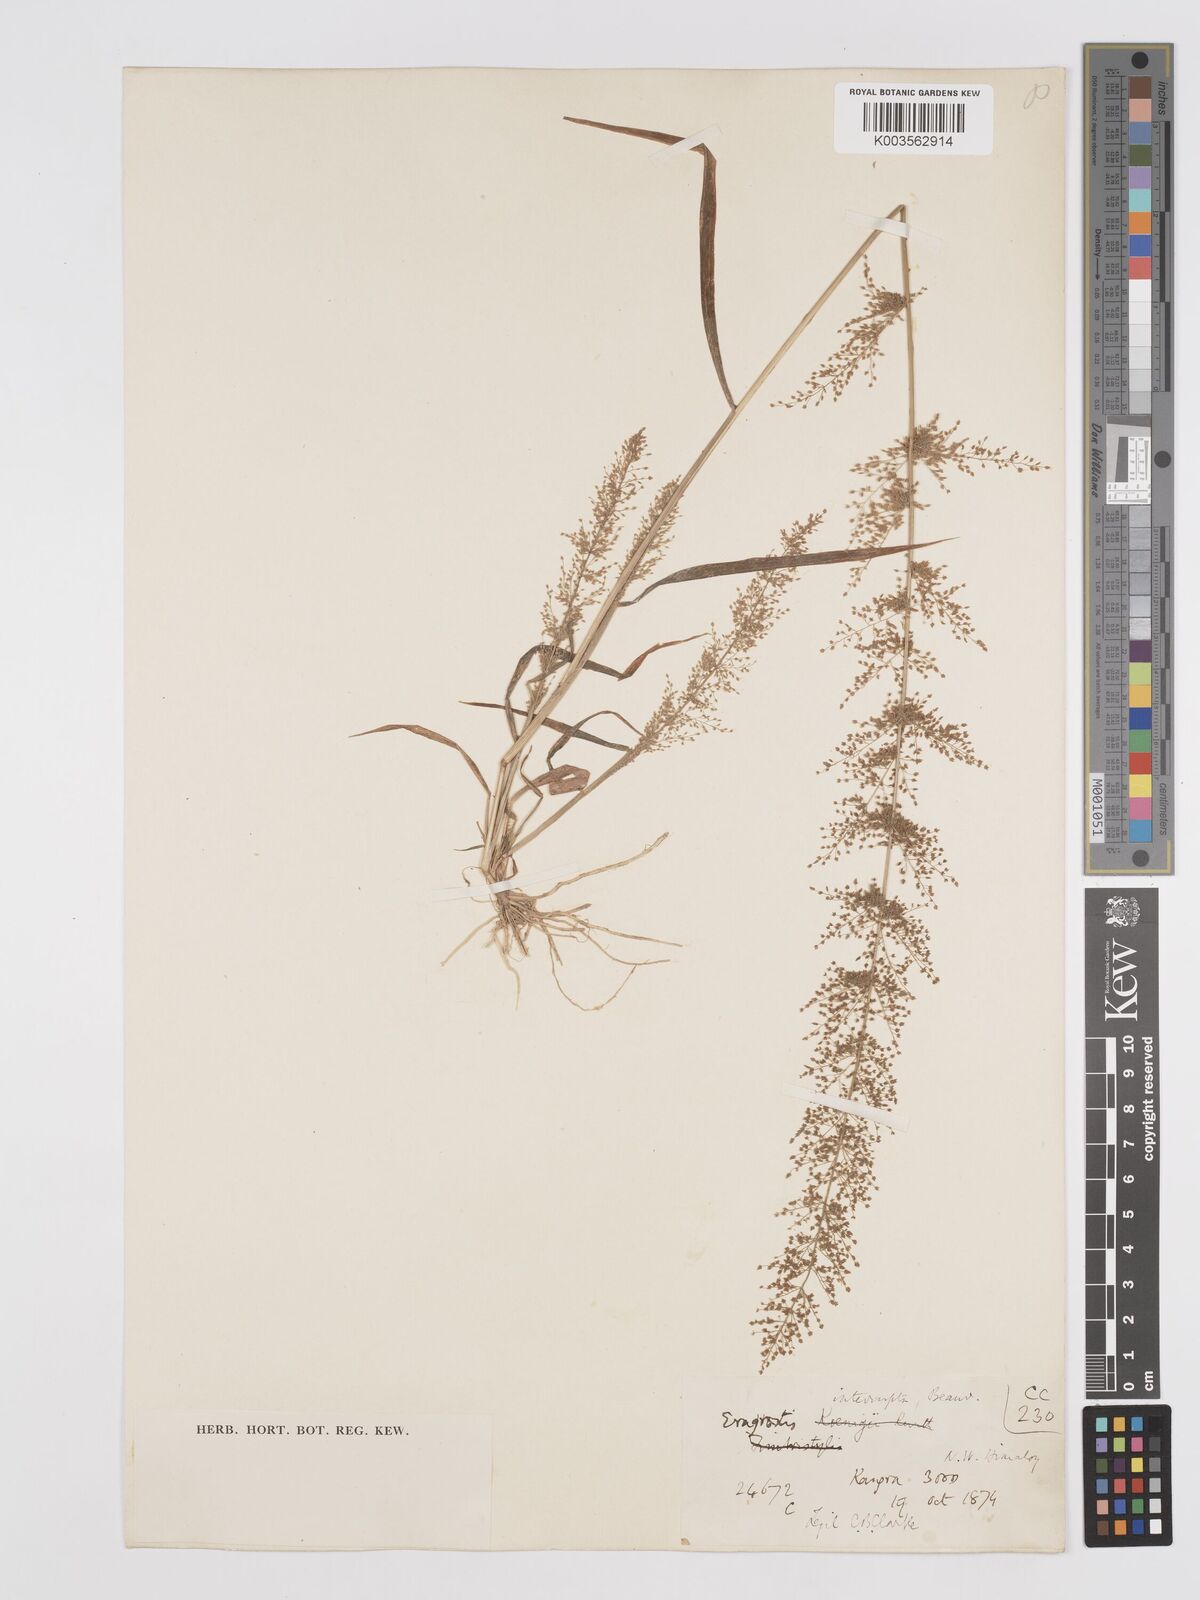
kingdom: Plantae
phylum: Tracheophyta
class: Liliopsida
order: Poales
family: Poaceae
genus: Eragrostis
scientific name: Eragrostis japonica
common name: Pond lovegrass
